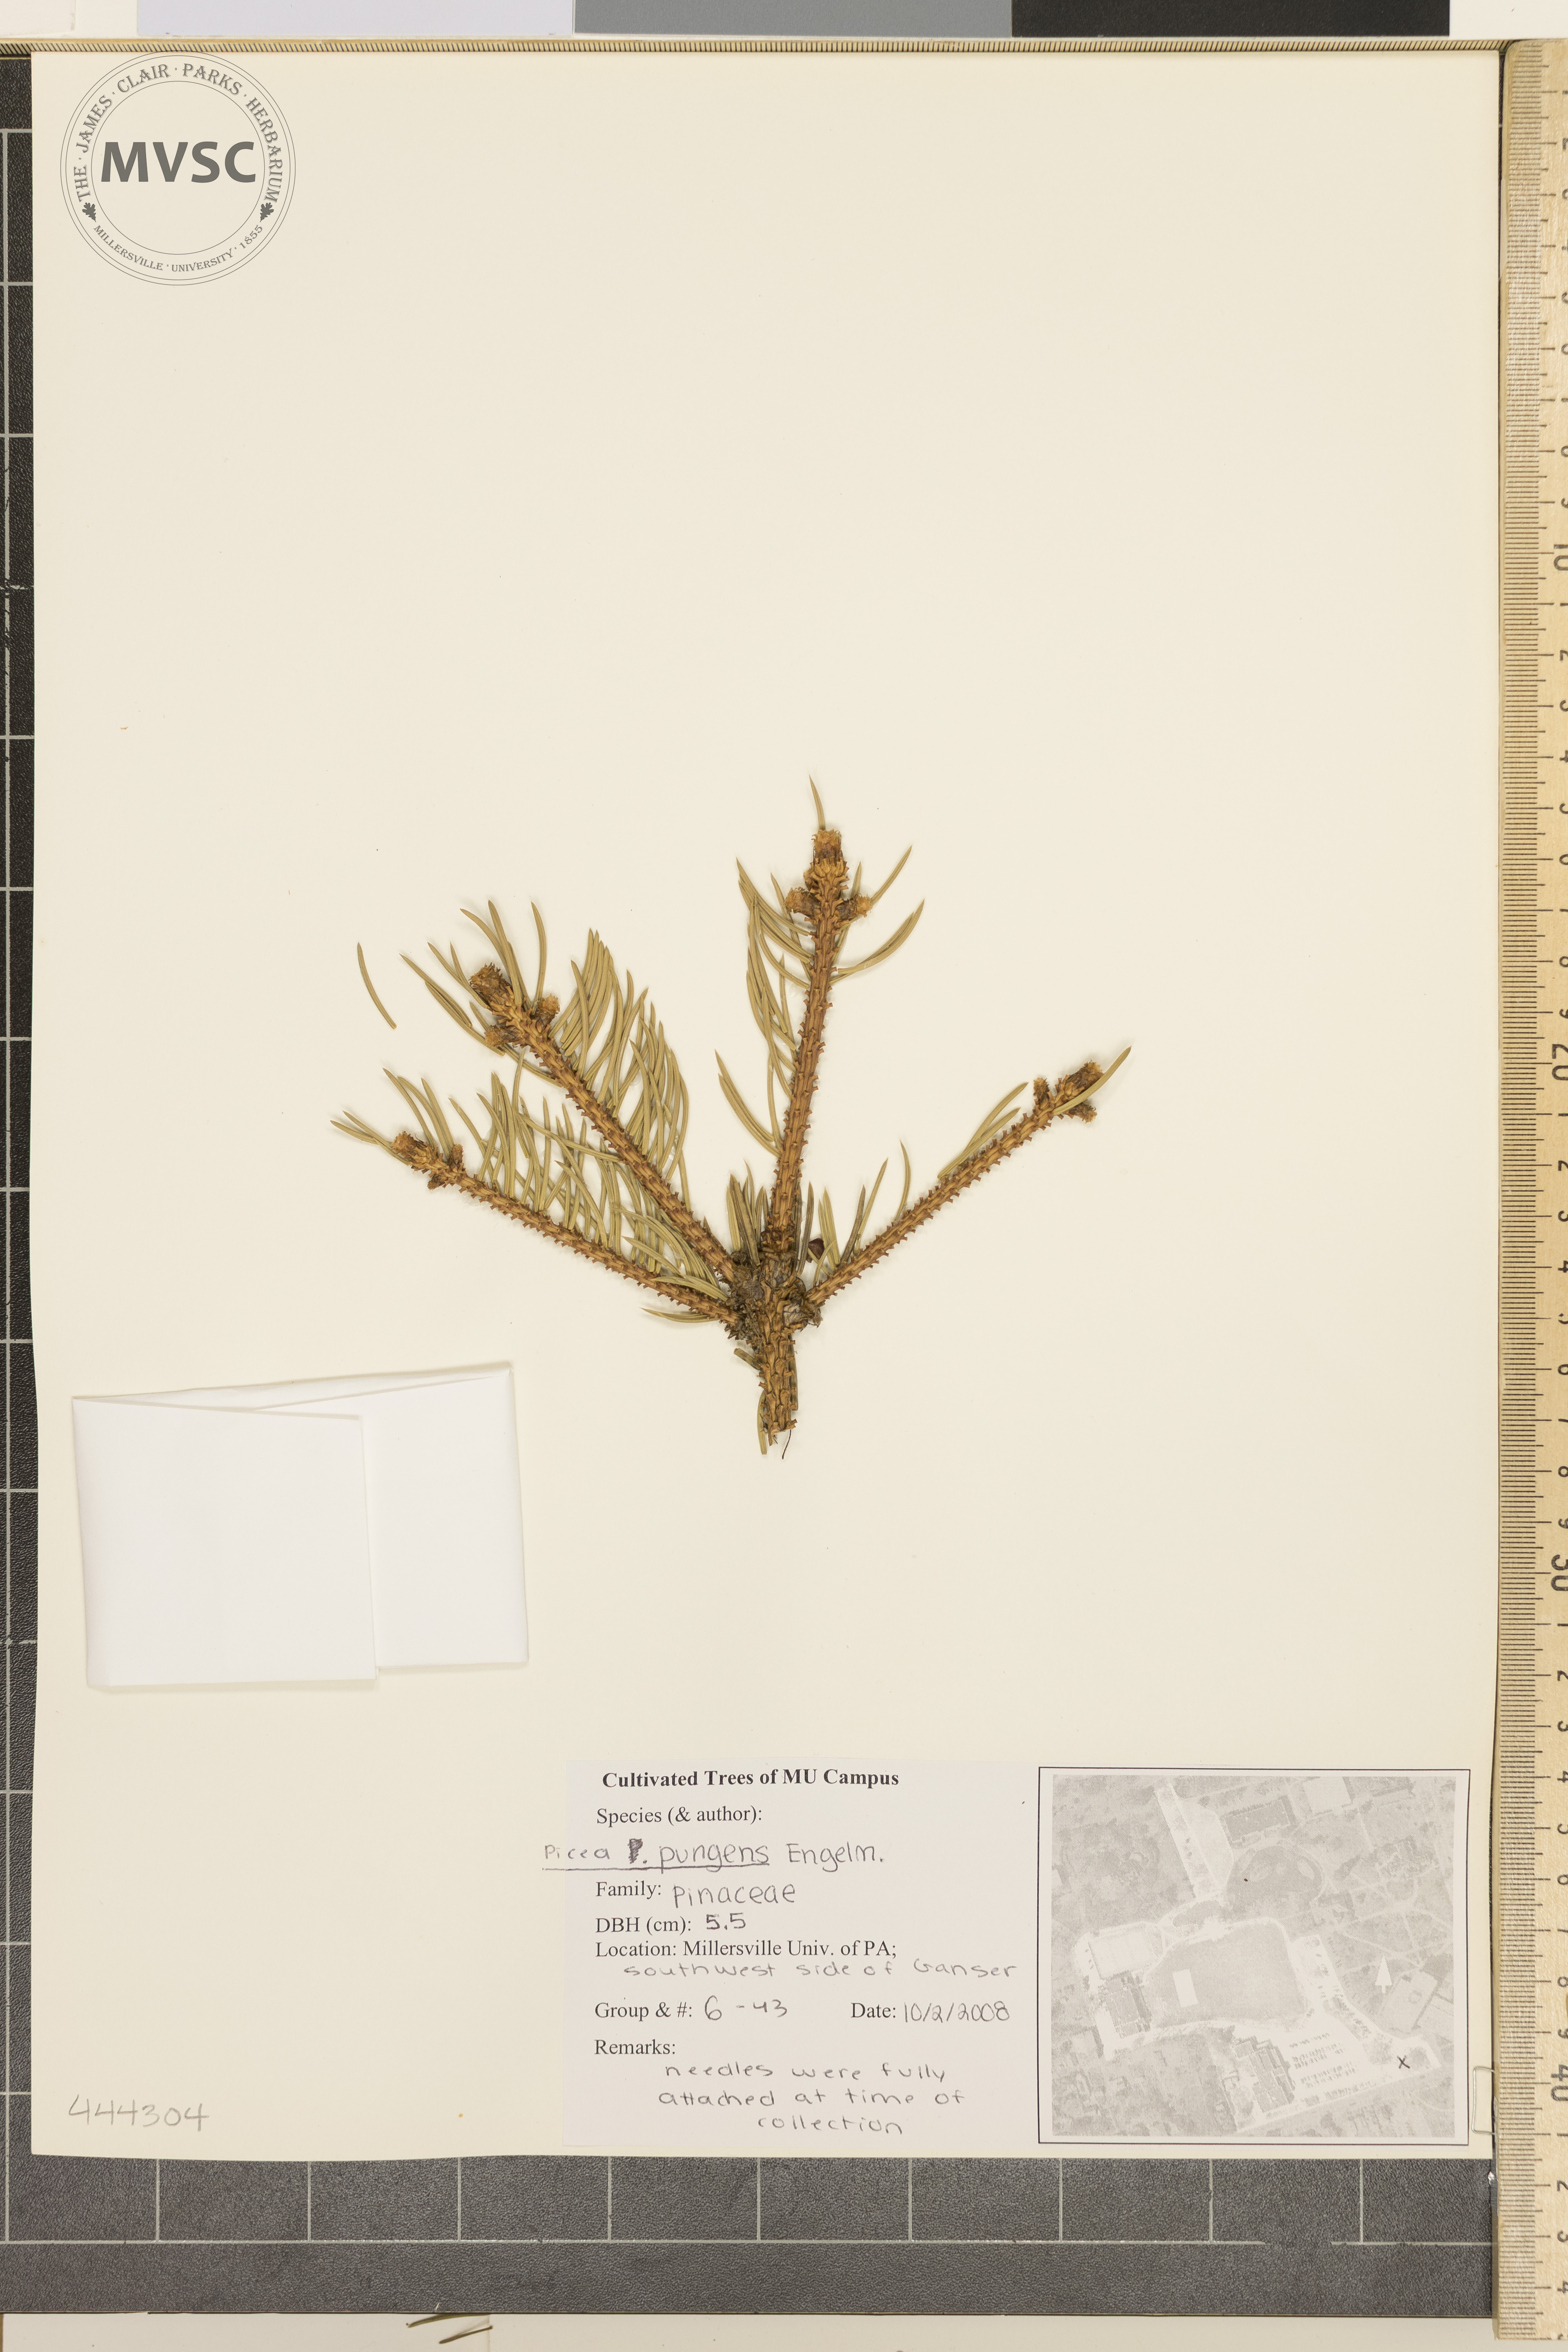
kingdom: Plantae
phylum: Tracheophyta
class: Pinopsida
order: Pinales
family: Pinaceae
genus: Picea
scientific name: Picea pungens
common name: Colorado spruce
